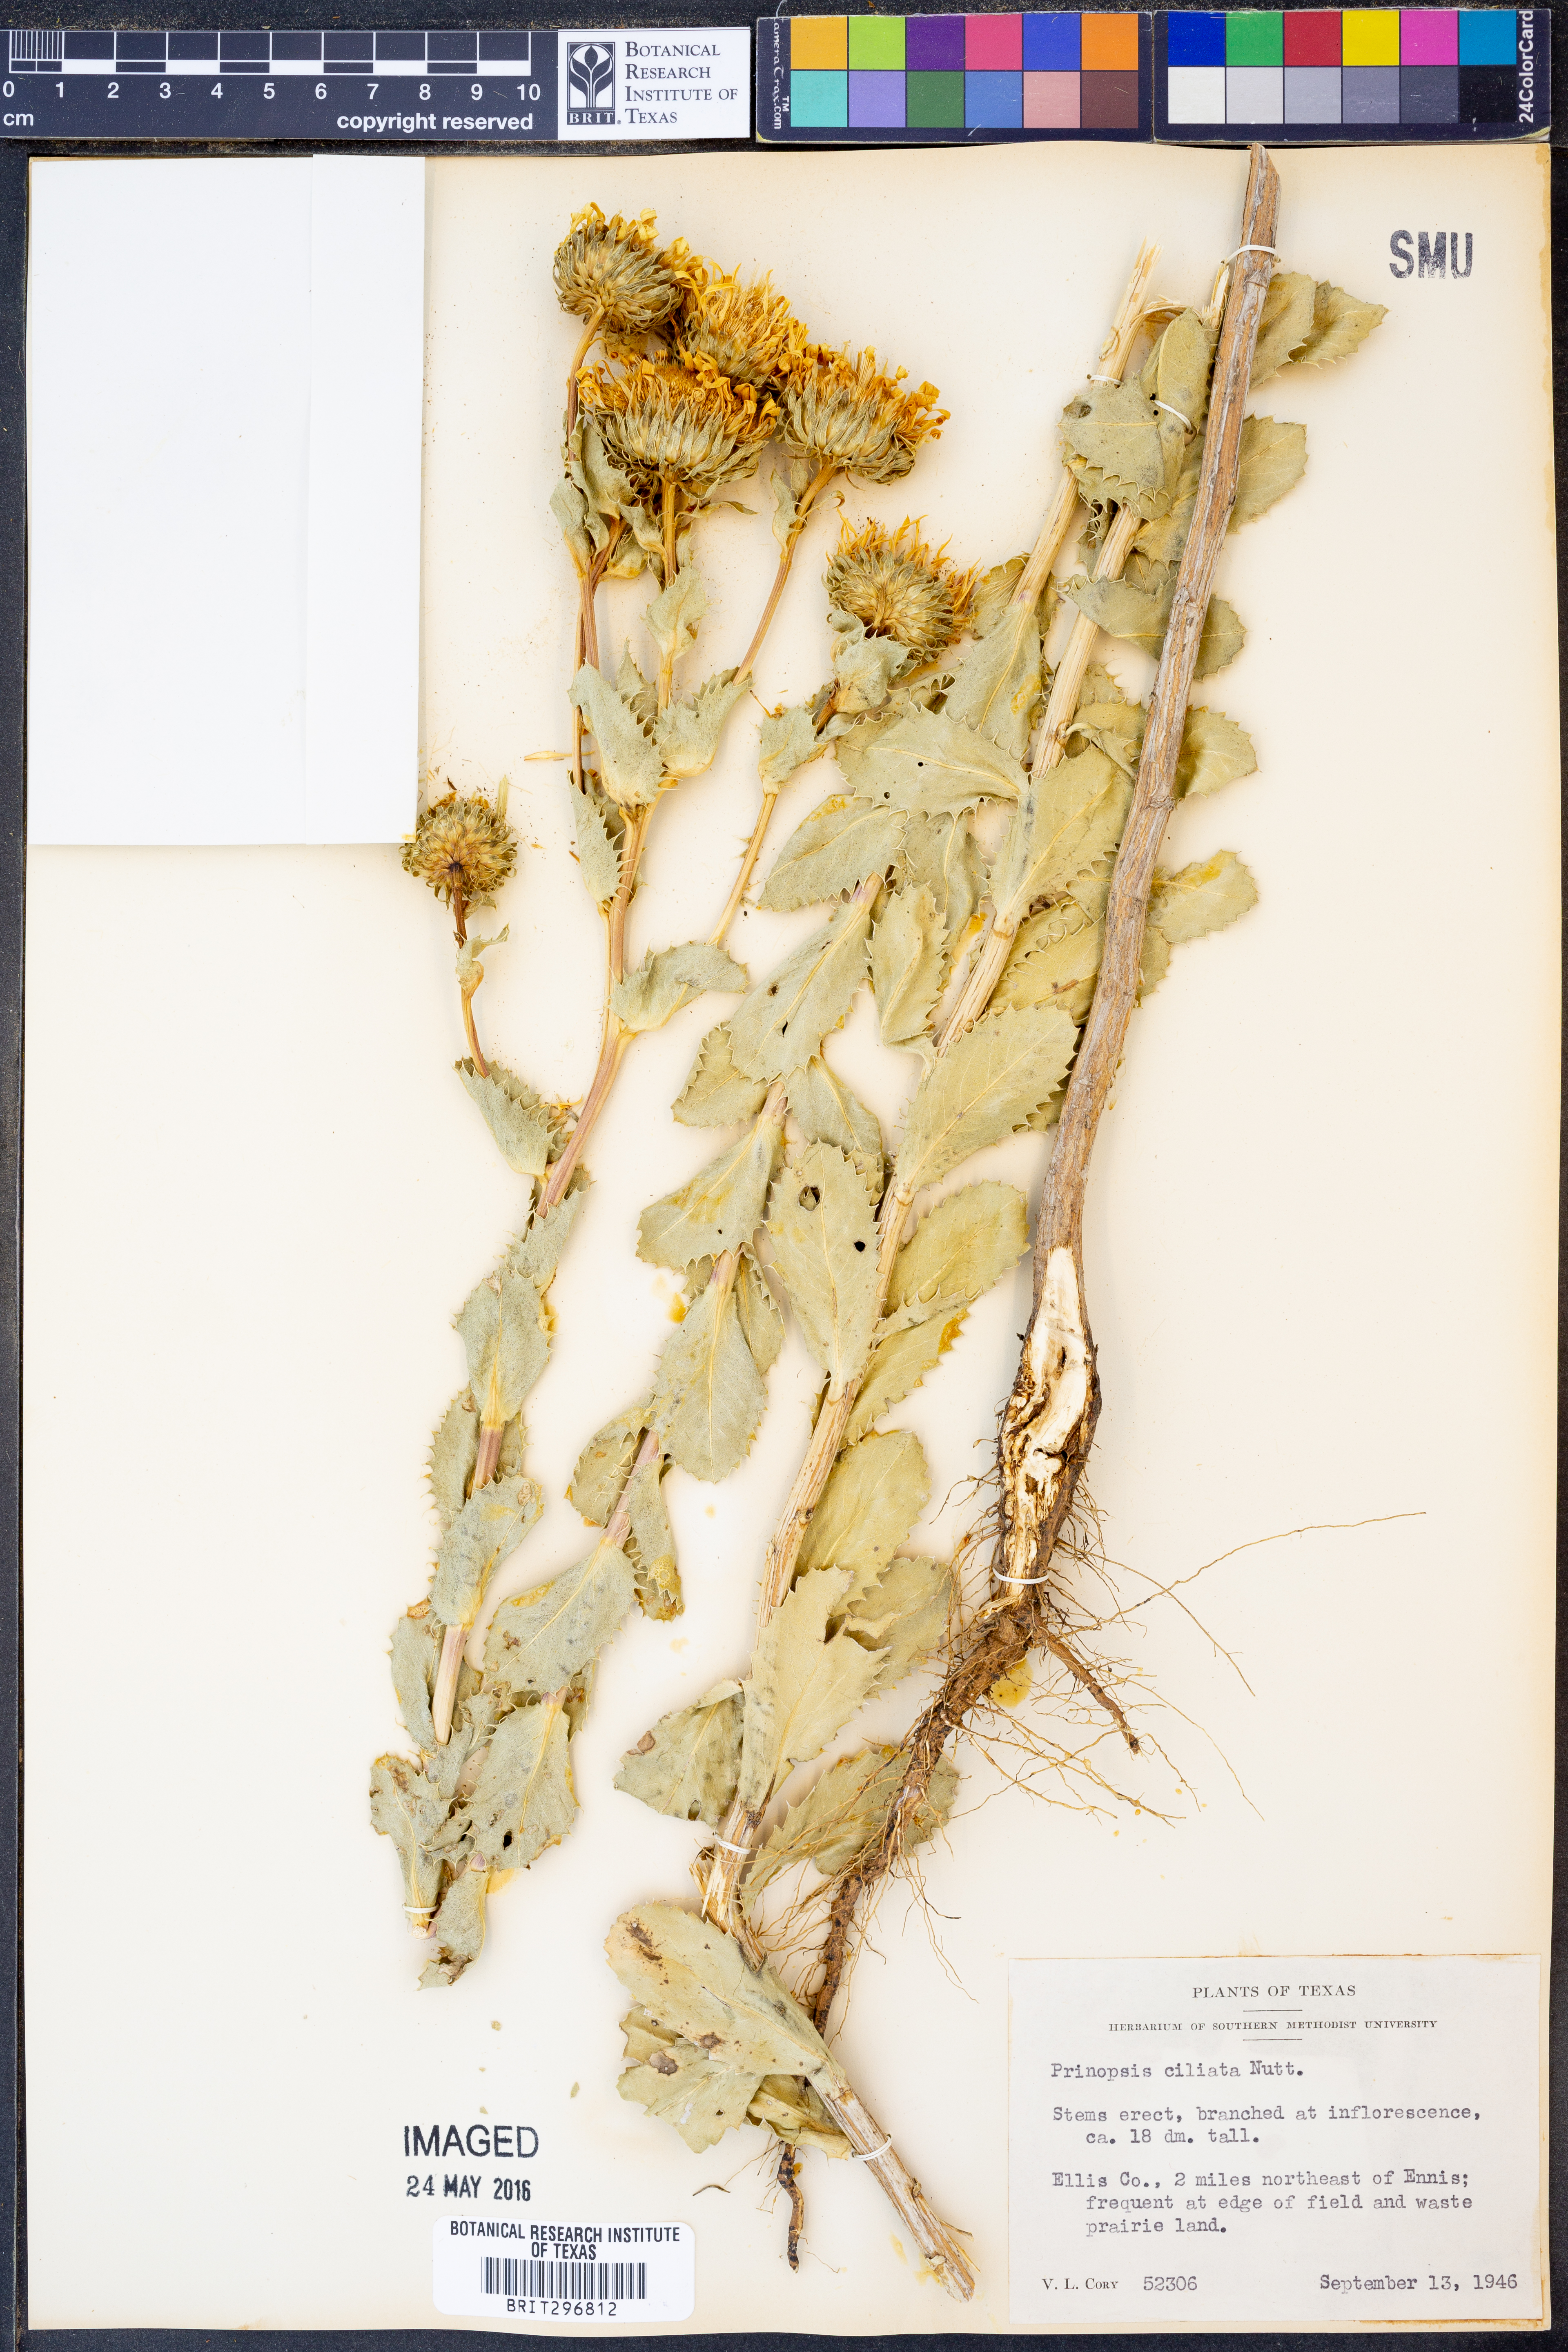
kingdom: Plantae
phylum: Tracheophyta
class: Magnoliopsida
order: Asterales
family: Asteraceae
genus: Grindelia
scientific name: Grindelia ciliata
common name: Goldenweed
